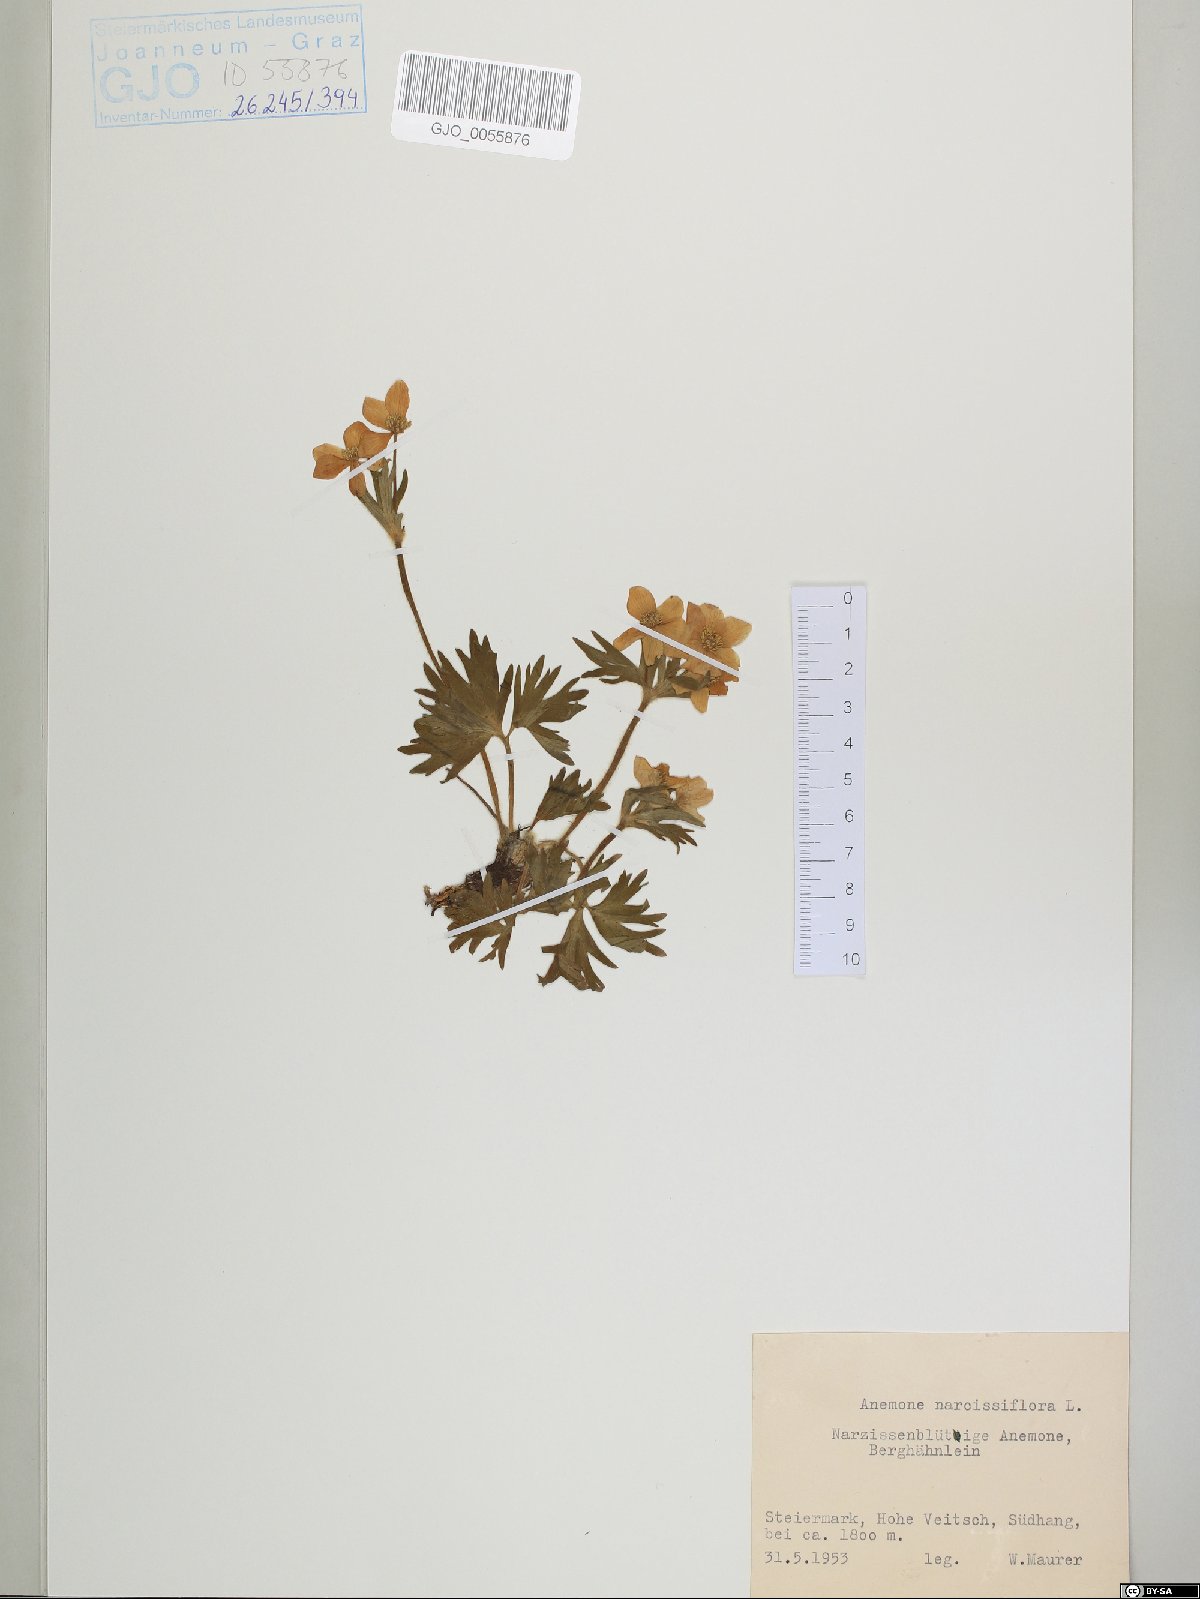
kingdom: Plantae
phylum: Tracheophyta
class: Magnoliopsida
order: Ranunculales
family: Ranunculaceae
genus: Anemonastrum
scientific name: Anemonastrum narcissiflorum
